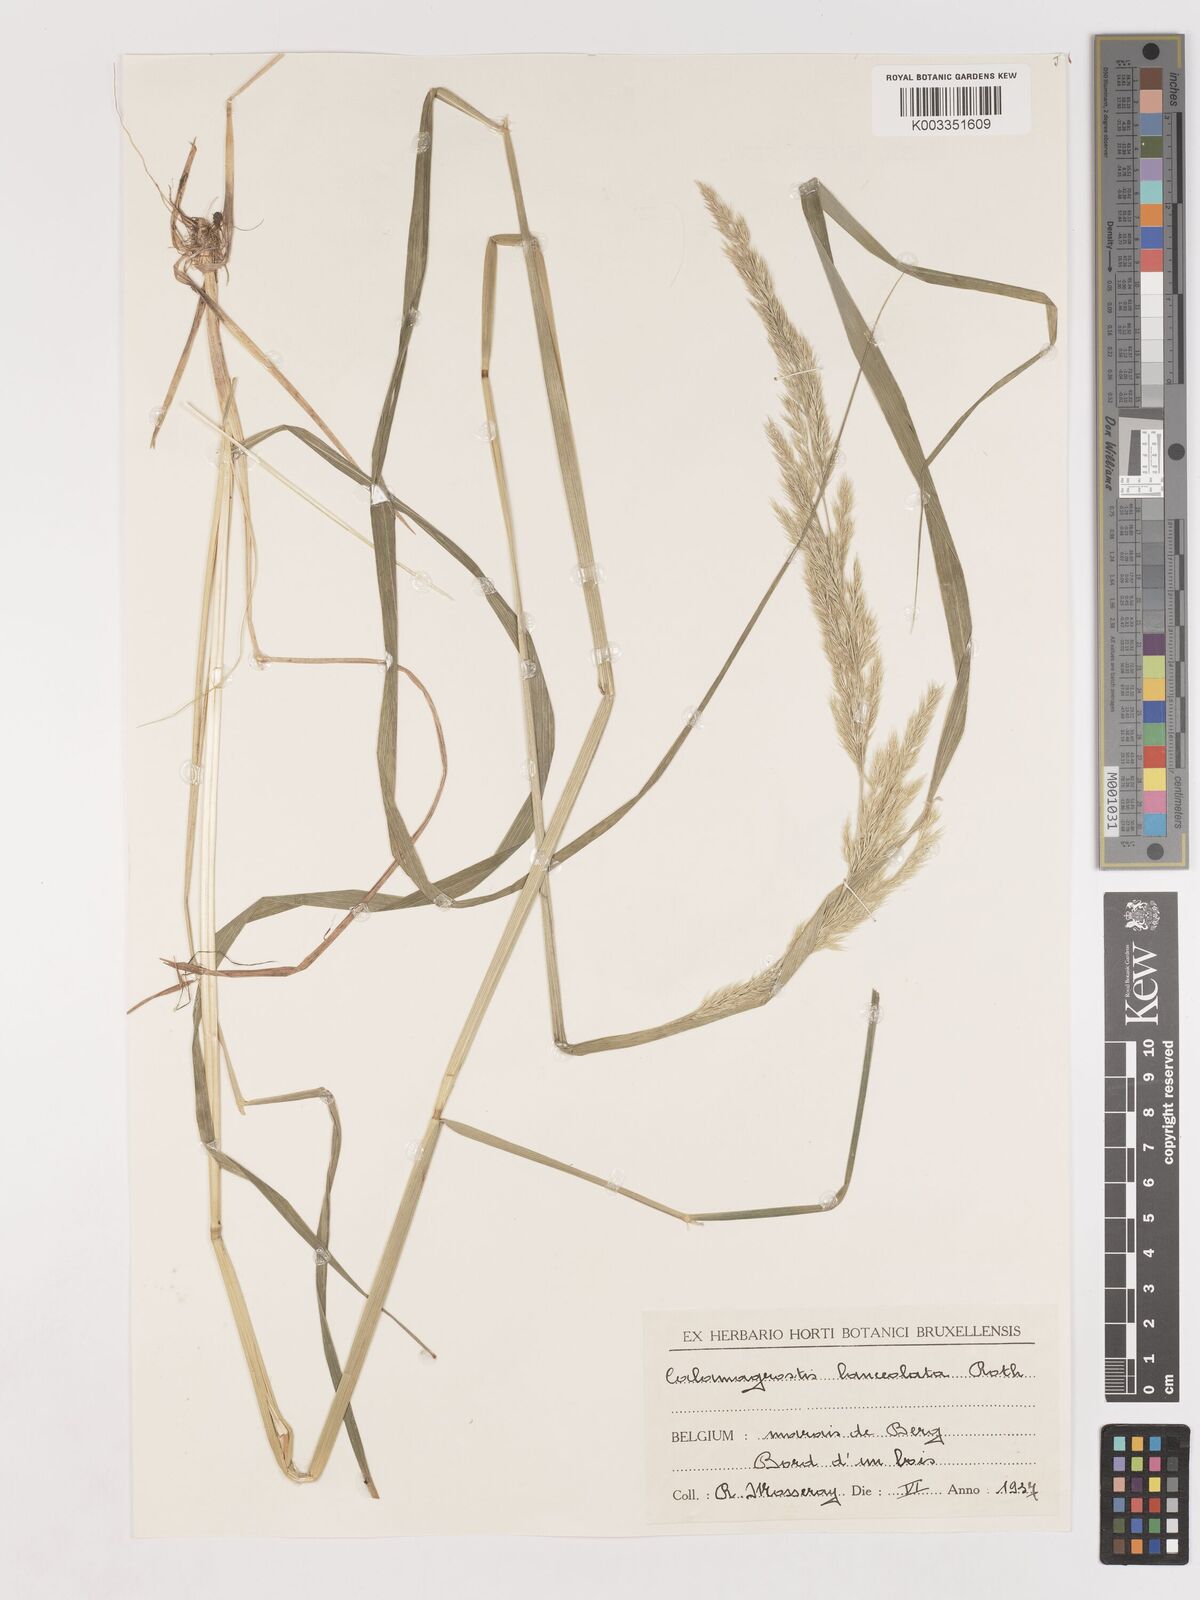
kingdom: Plantae
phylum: Tracheophyta
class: Liliopsida
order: Poales
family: Poaceae
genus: Calamagrostis
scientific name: Calamagrostis canescens
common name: Purple small-reed
